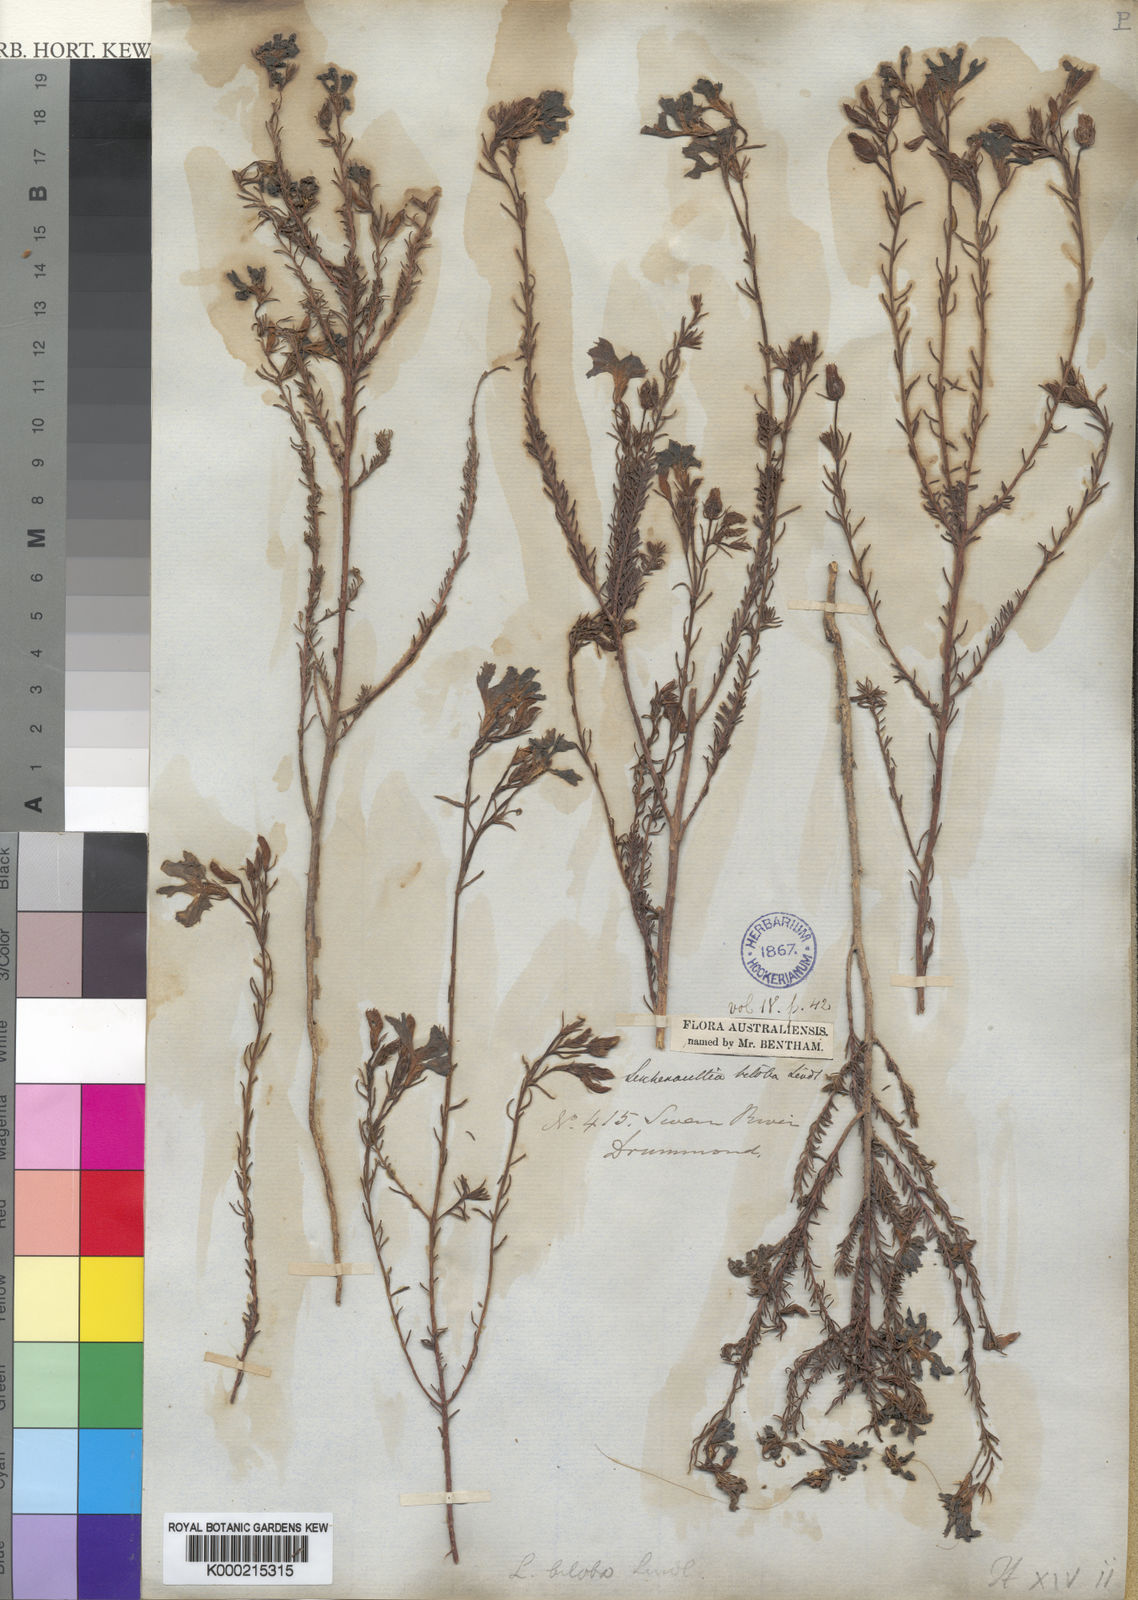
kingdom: Plantae
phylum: Tracheophyta
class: Magnoliopsida
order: Asterales
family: Goodeniaceae
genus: Leschenaultia
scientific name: Leschenaultia biloba
